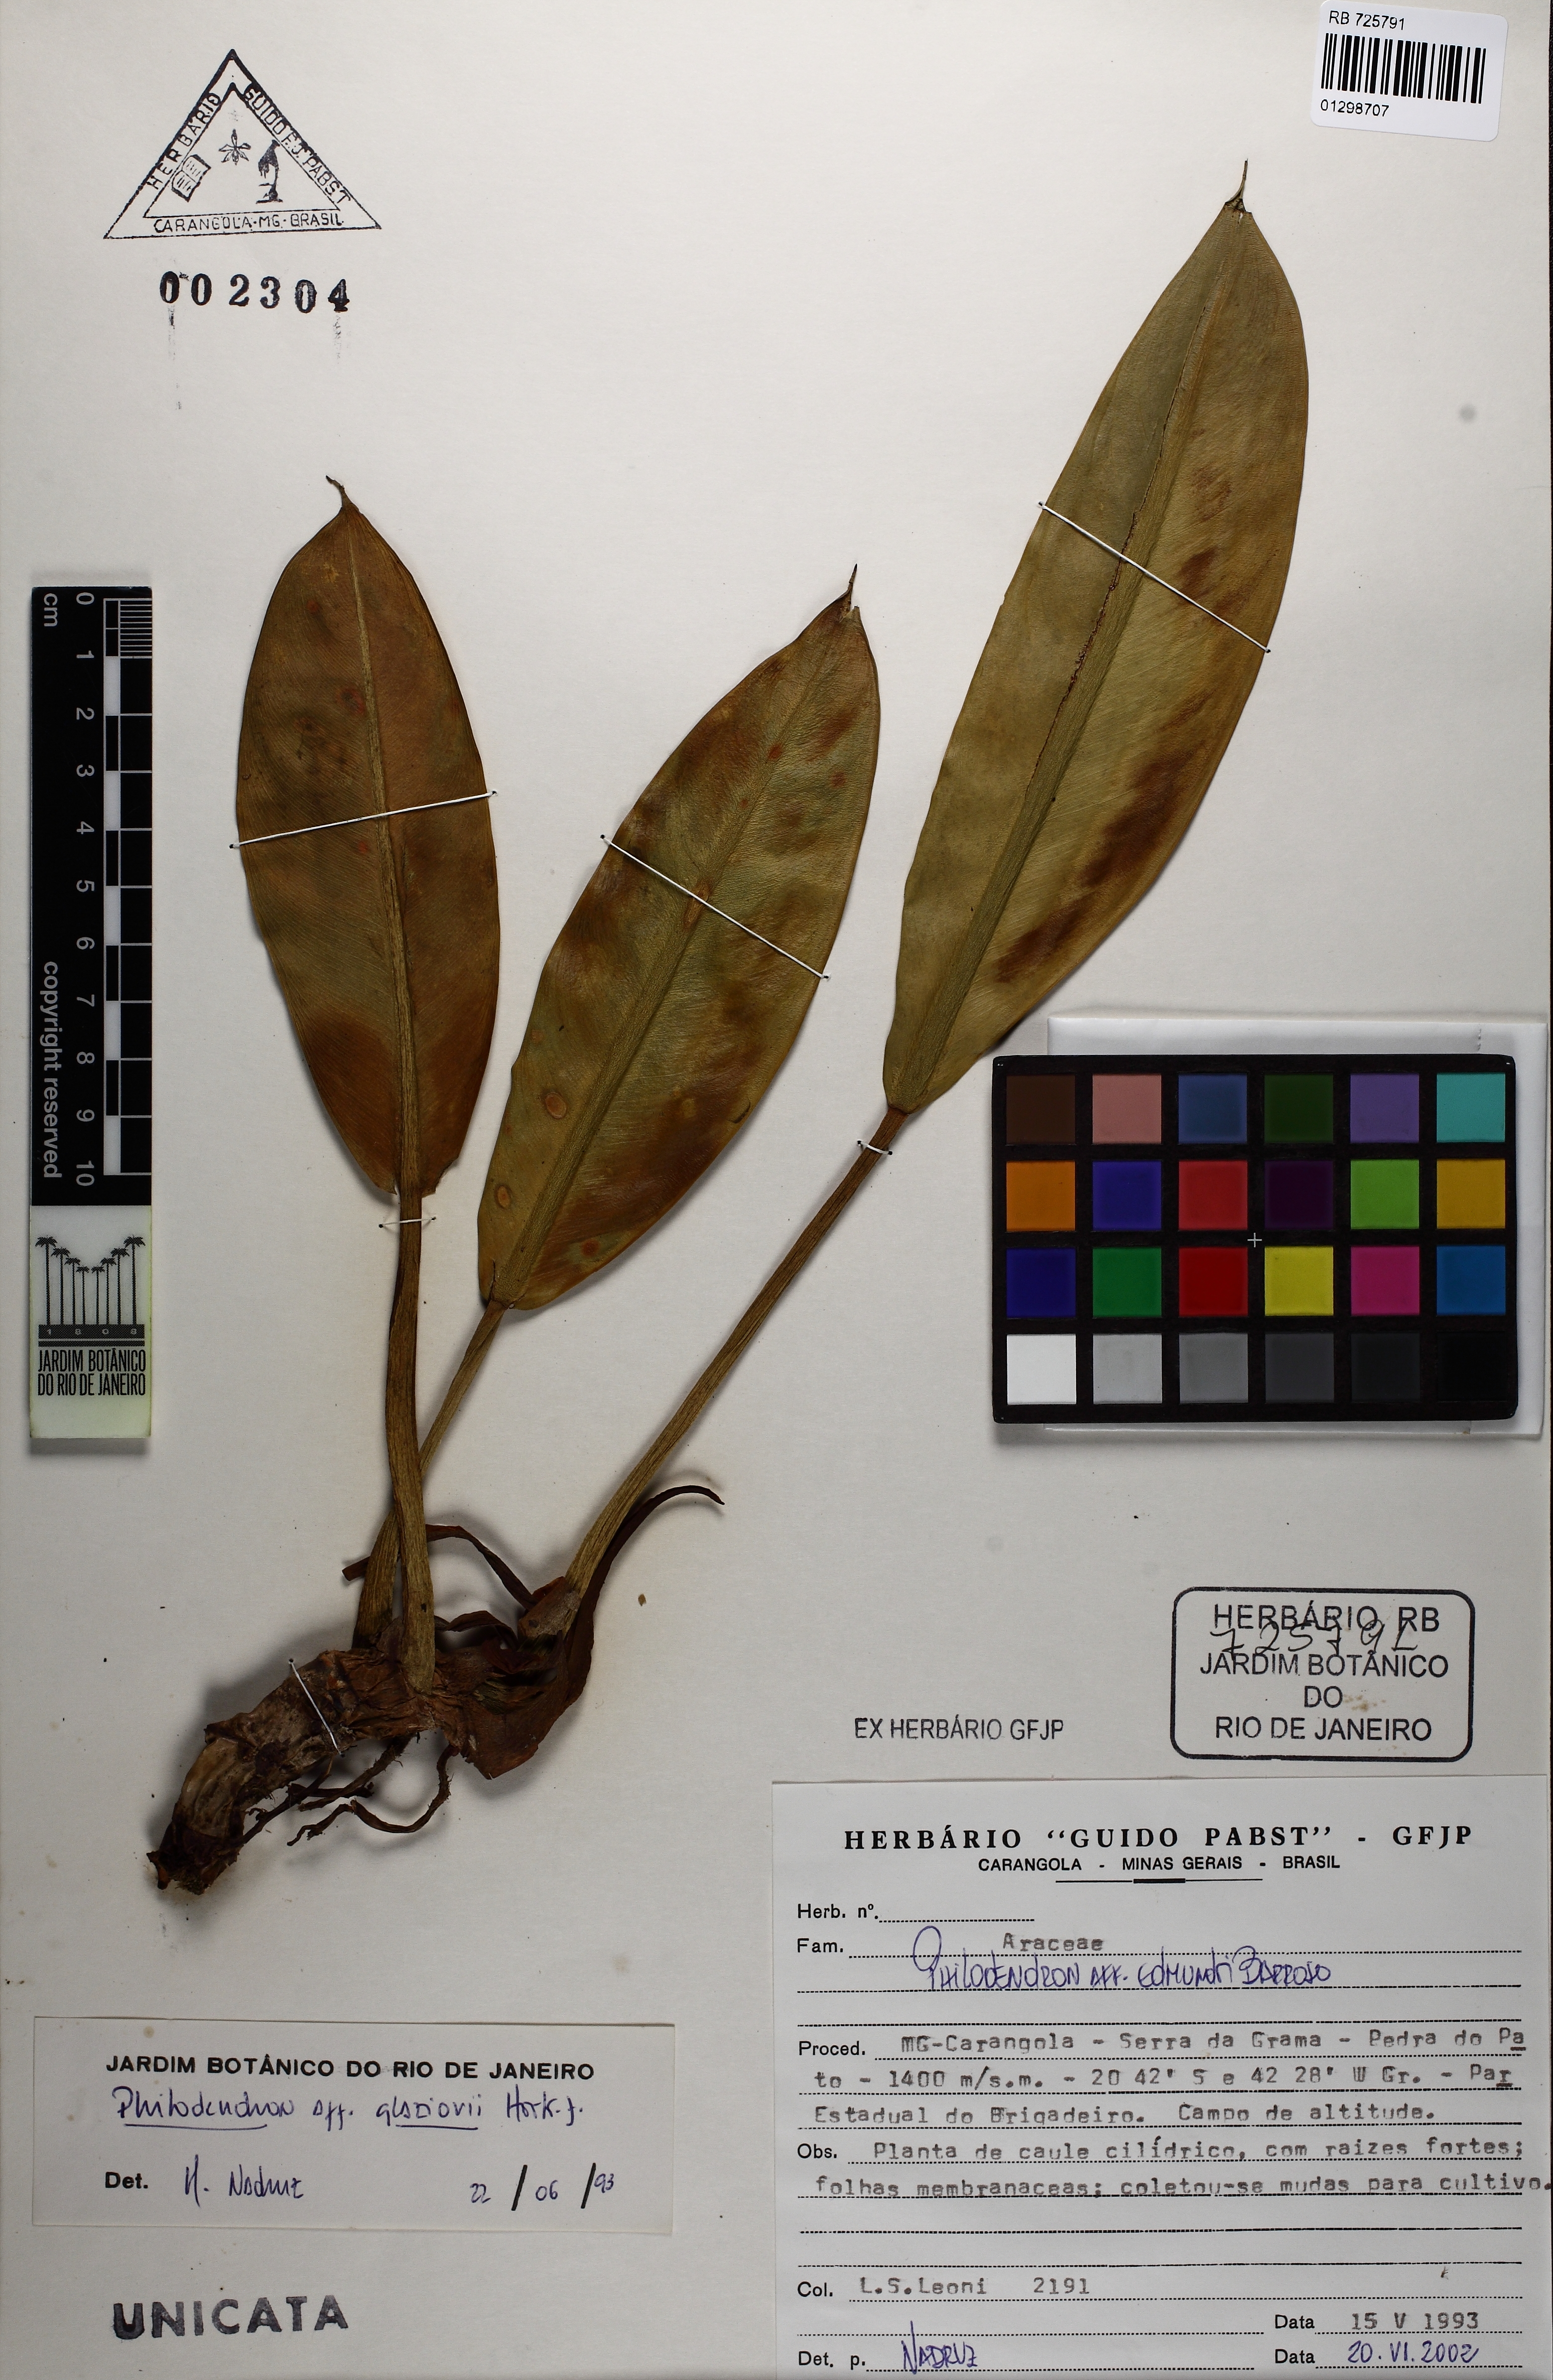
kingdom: Plantae
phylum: Tracheophyta
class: Liliopsida
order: Alismatales
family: Araceae
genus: Philodendron
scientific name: Philodendron glaziovii
